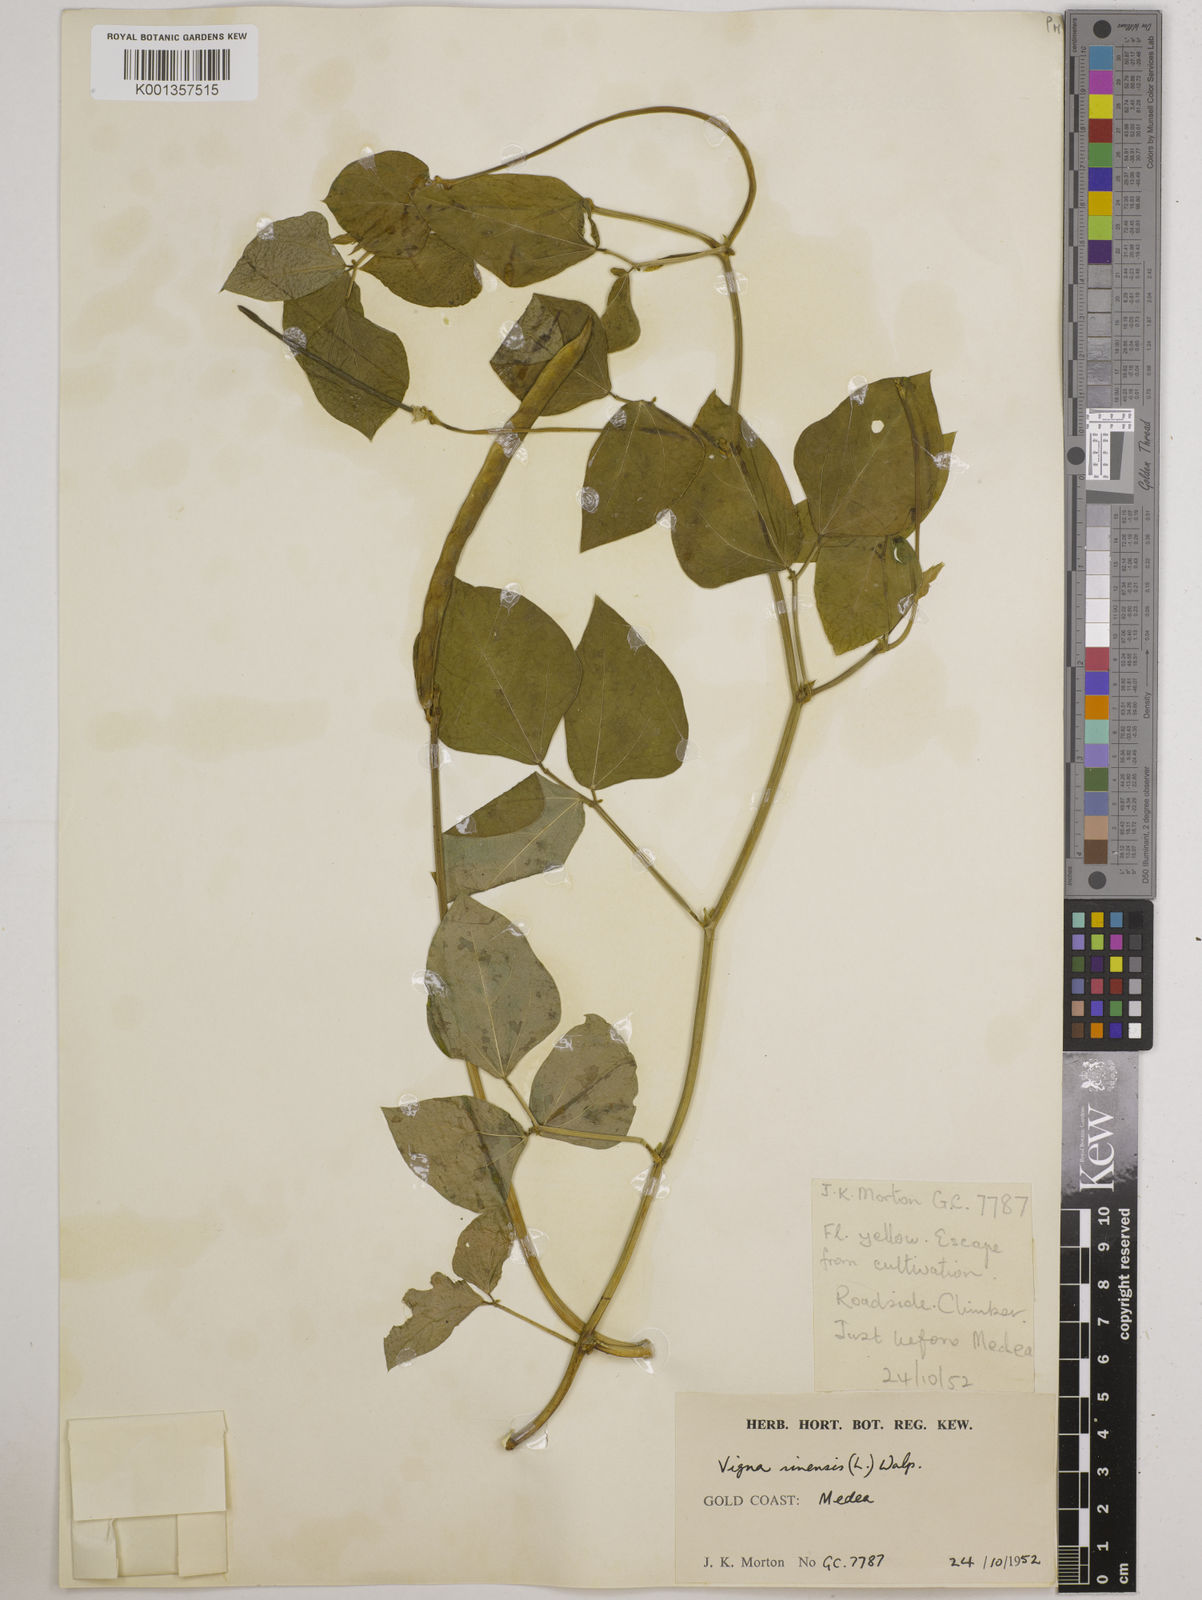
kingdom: Plantae
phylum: Tracheophyta
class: Magnoliopsida
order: Fabales
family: Fabaceae
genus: Vigna
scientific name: Vigna
